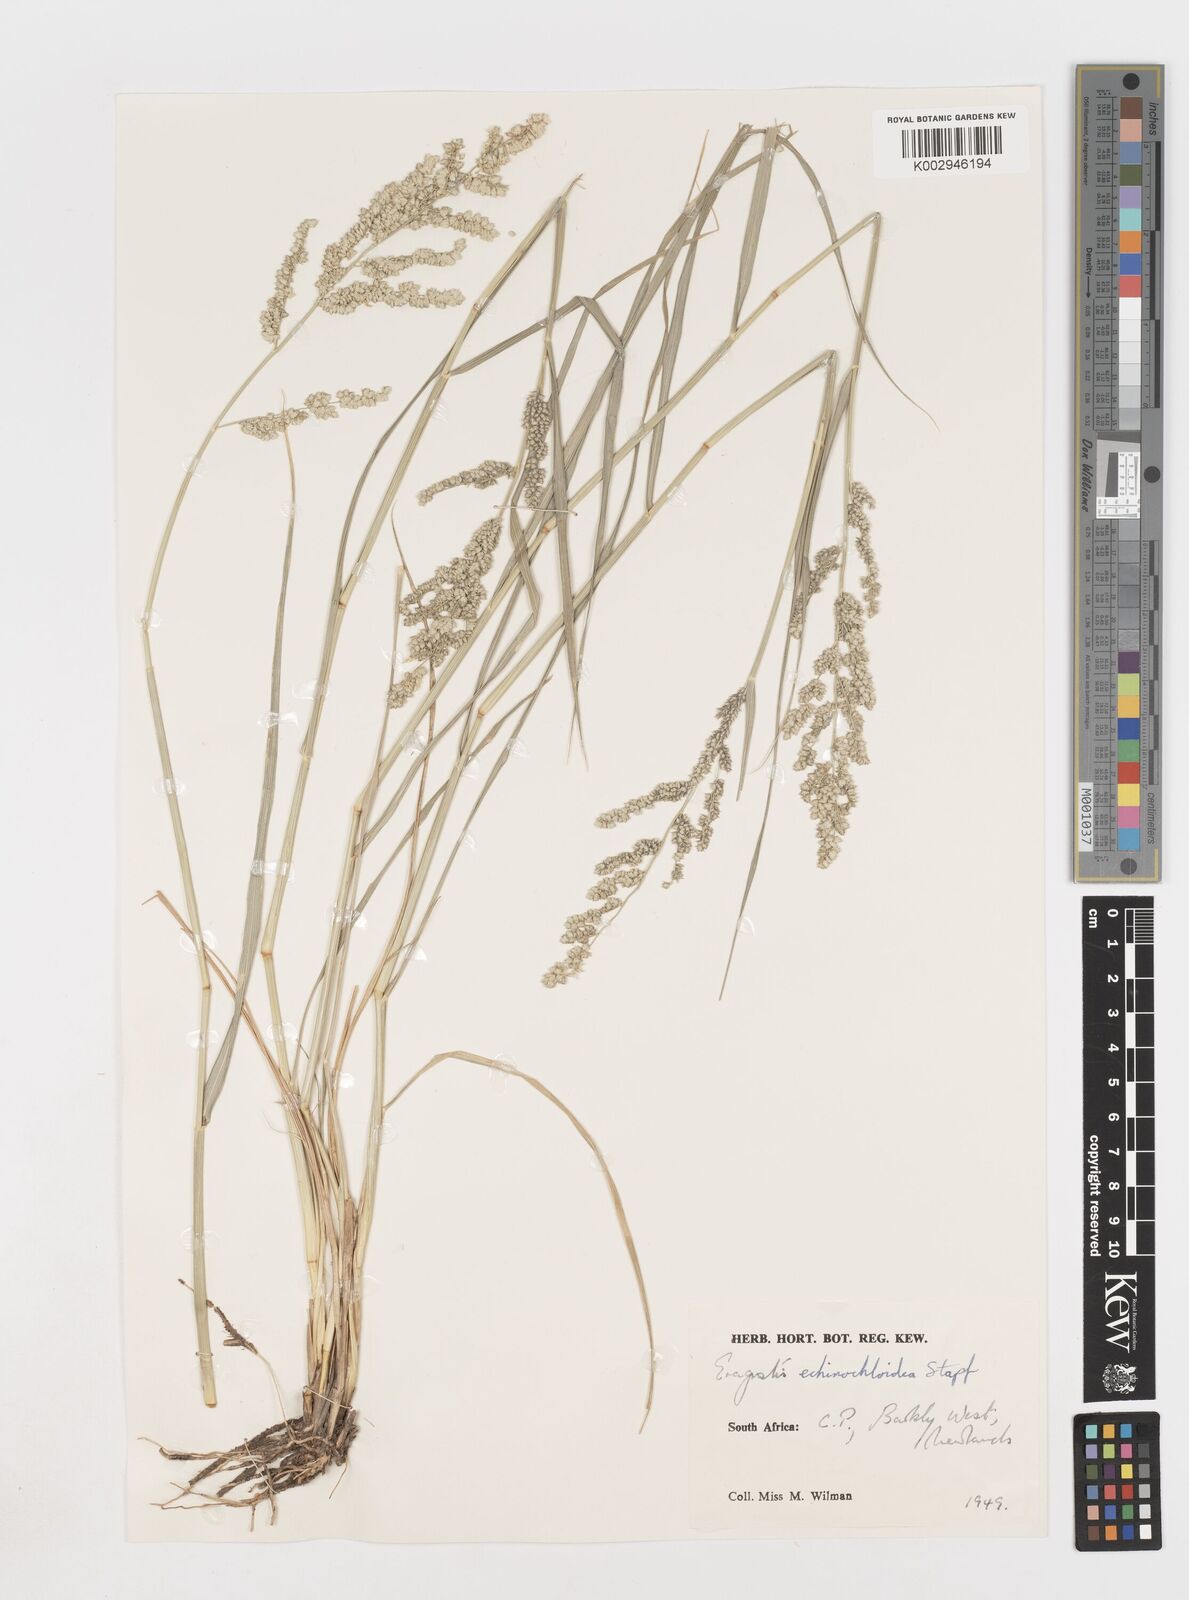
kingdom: Plantae
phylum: Tracheophyta
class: Liliopsida
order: Poales
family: Poaceae
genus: Eragrostis
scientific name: Eragrostis echinochloidea
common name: African lovegrass
